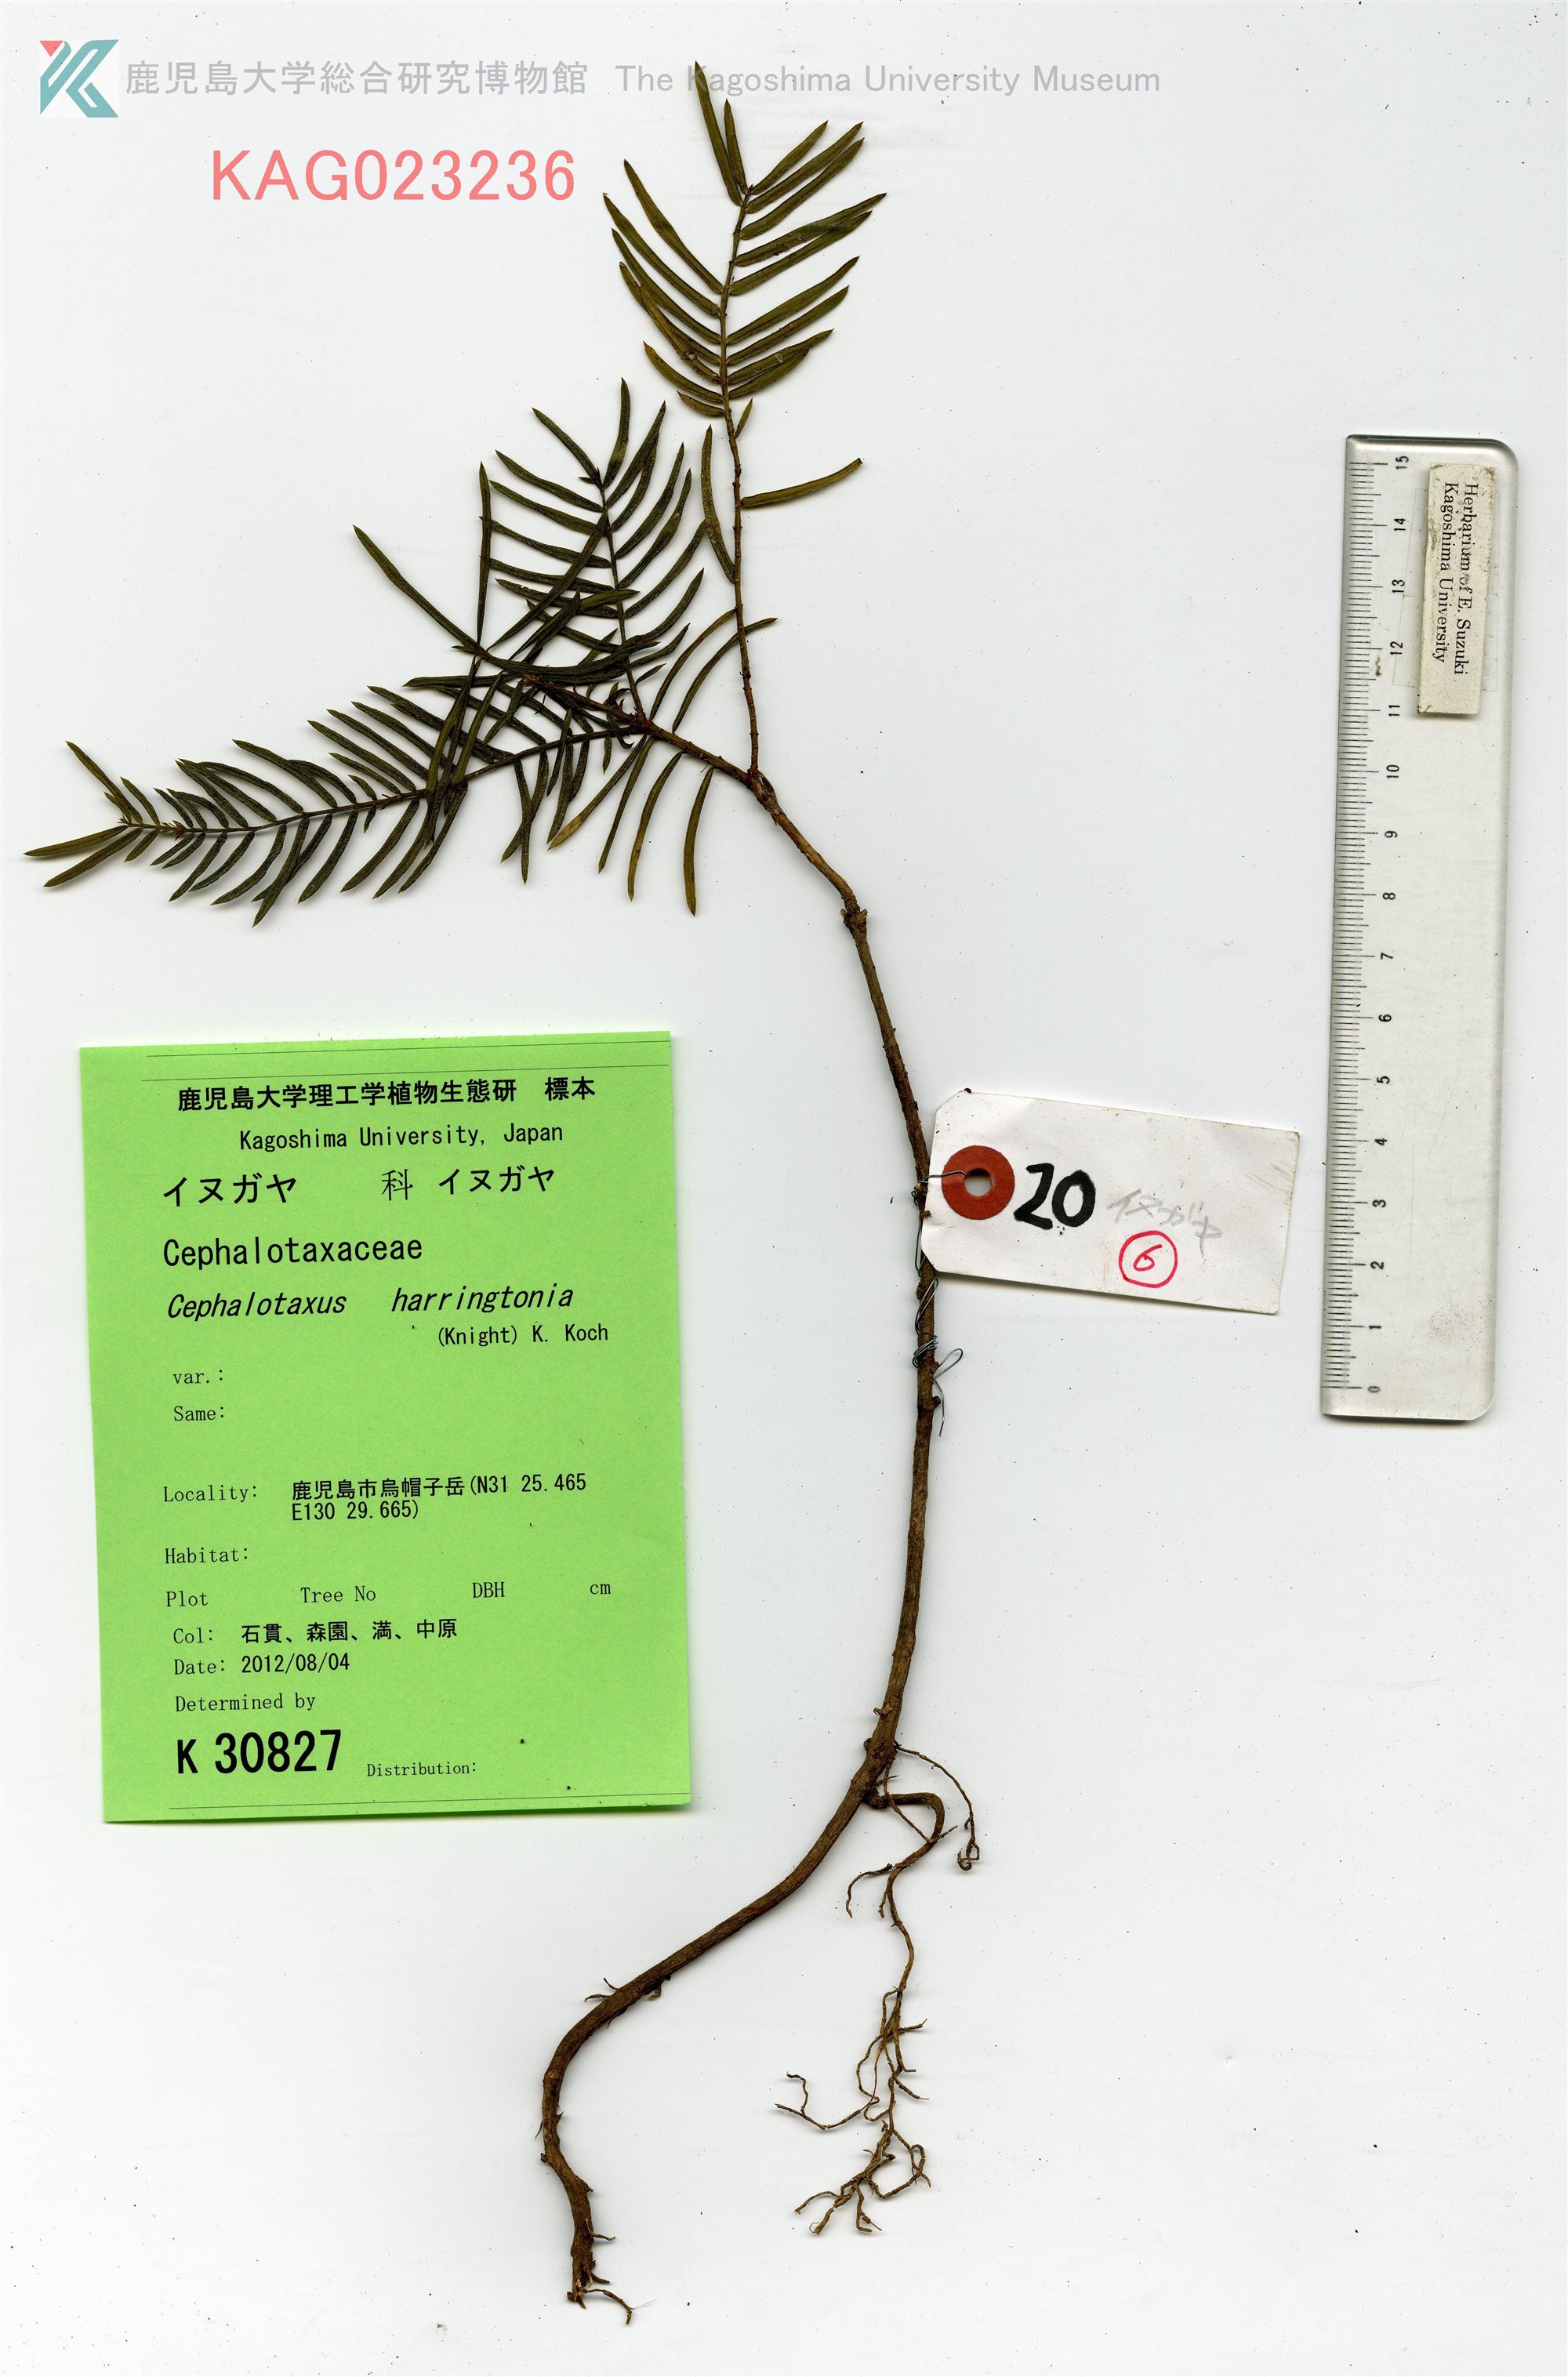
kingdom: Plantae
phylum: Tracheophyta
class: Pinopsida
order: Pinales
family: Cephalotaxaceae
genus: Cephalotaxus
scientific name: Cephalotaxus harringtonia
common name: イヌガヤ
